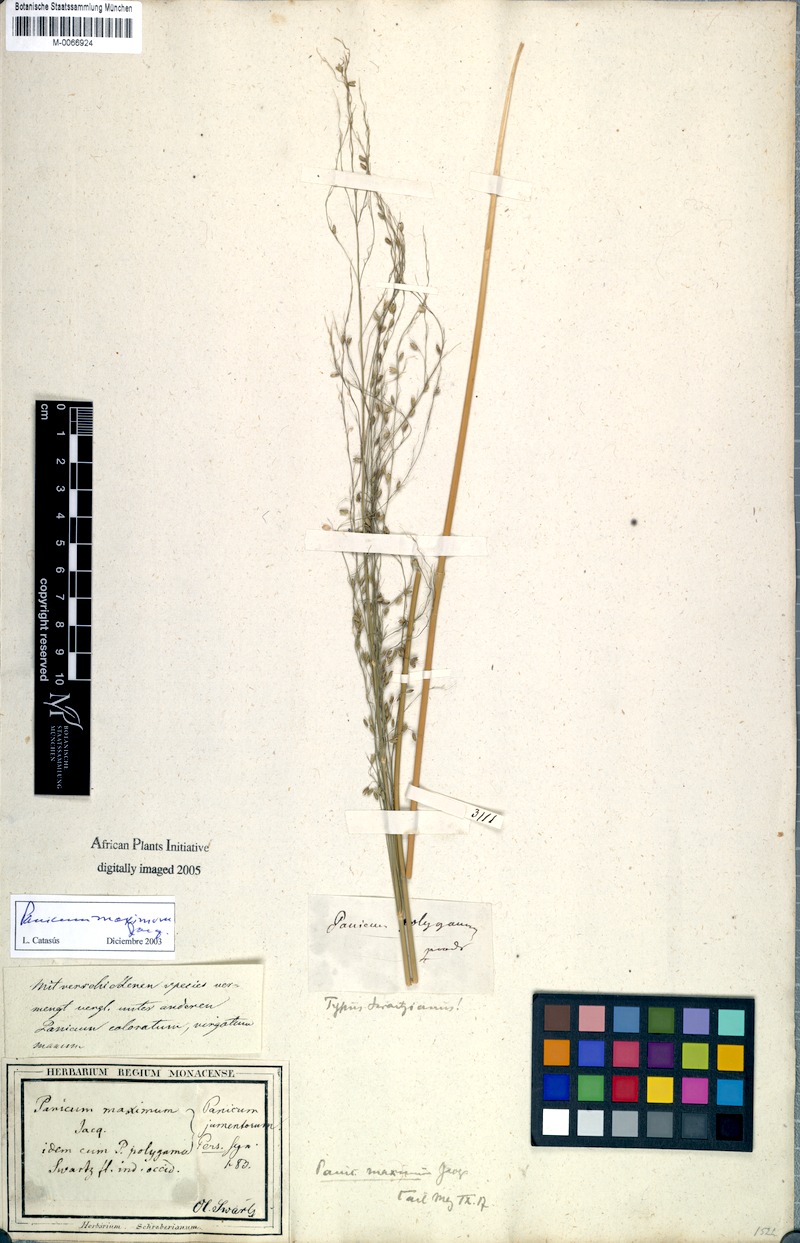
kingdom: Plantae
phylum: Tracheophyta
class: Liliopsida
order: Poales
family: Poaceae
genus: Megathyrsus
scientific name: Megathyrsus maximus
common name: Guineagrass
